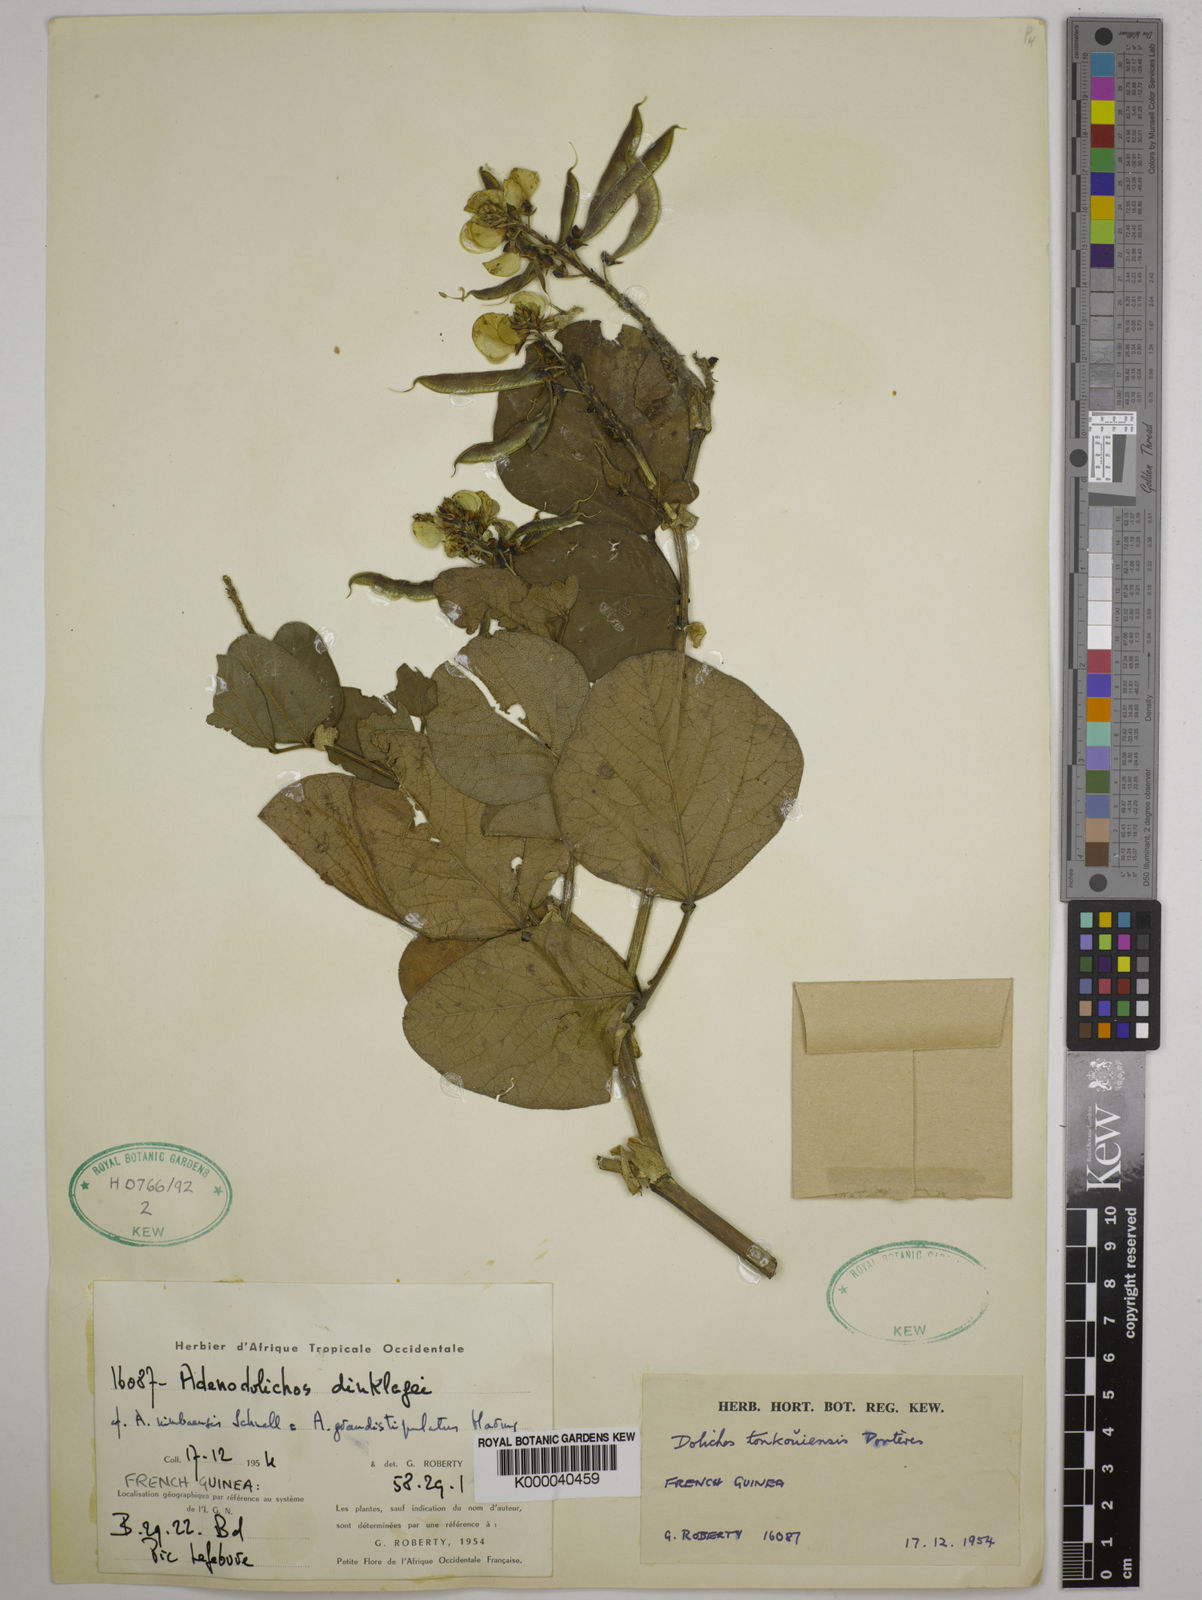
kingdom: Plantae
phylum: Tracheophyta
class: Magnoliopsida
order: Fabales
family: Fabaceae
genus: Dolichos
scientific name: Dolichos tonkouiensis
